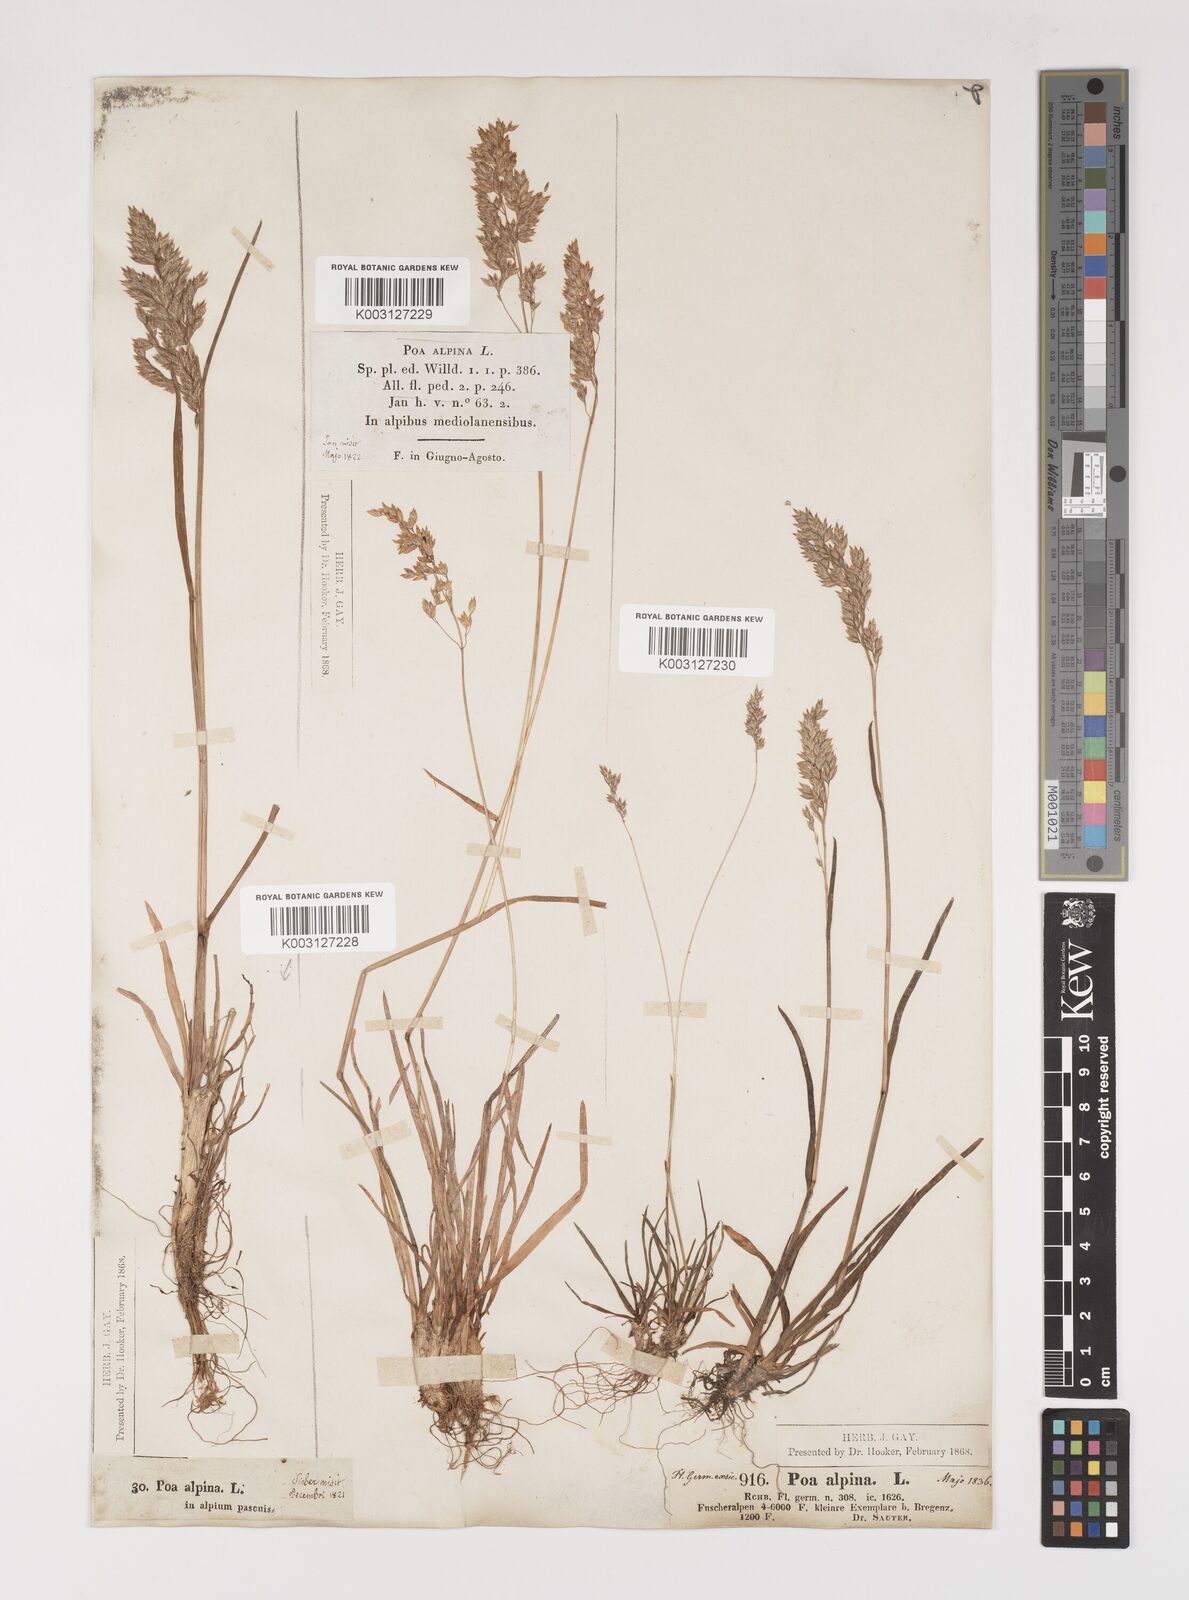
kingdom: Plantae
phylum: Tracheophyta
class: Liliopsida
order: Poales
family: Poaceae
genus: Poa
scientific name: Poa alpina
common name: Alpine bluegrass
